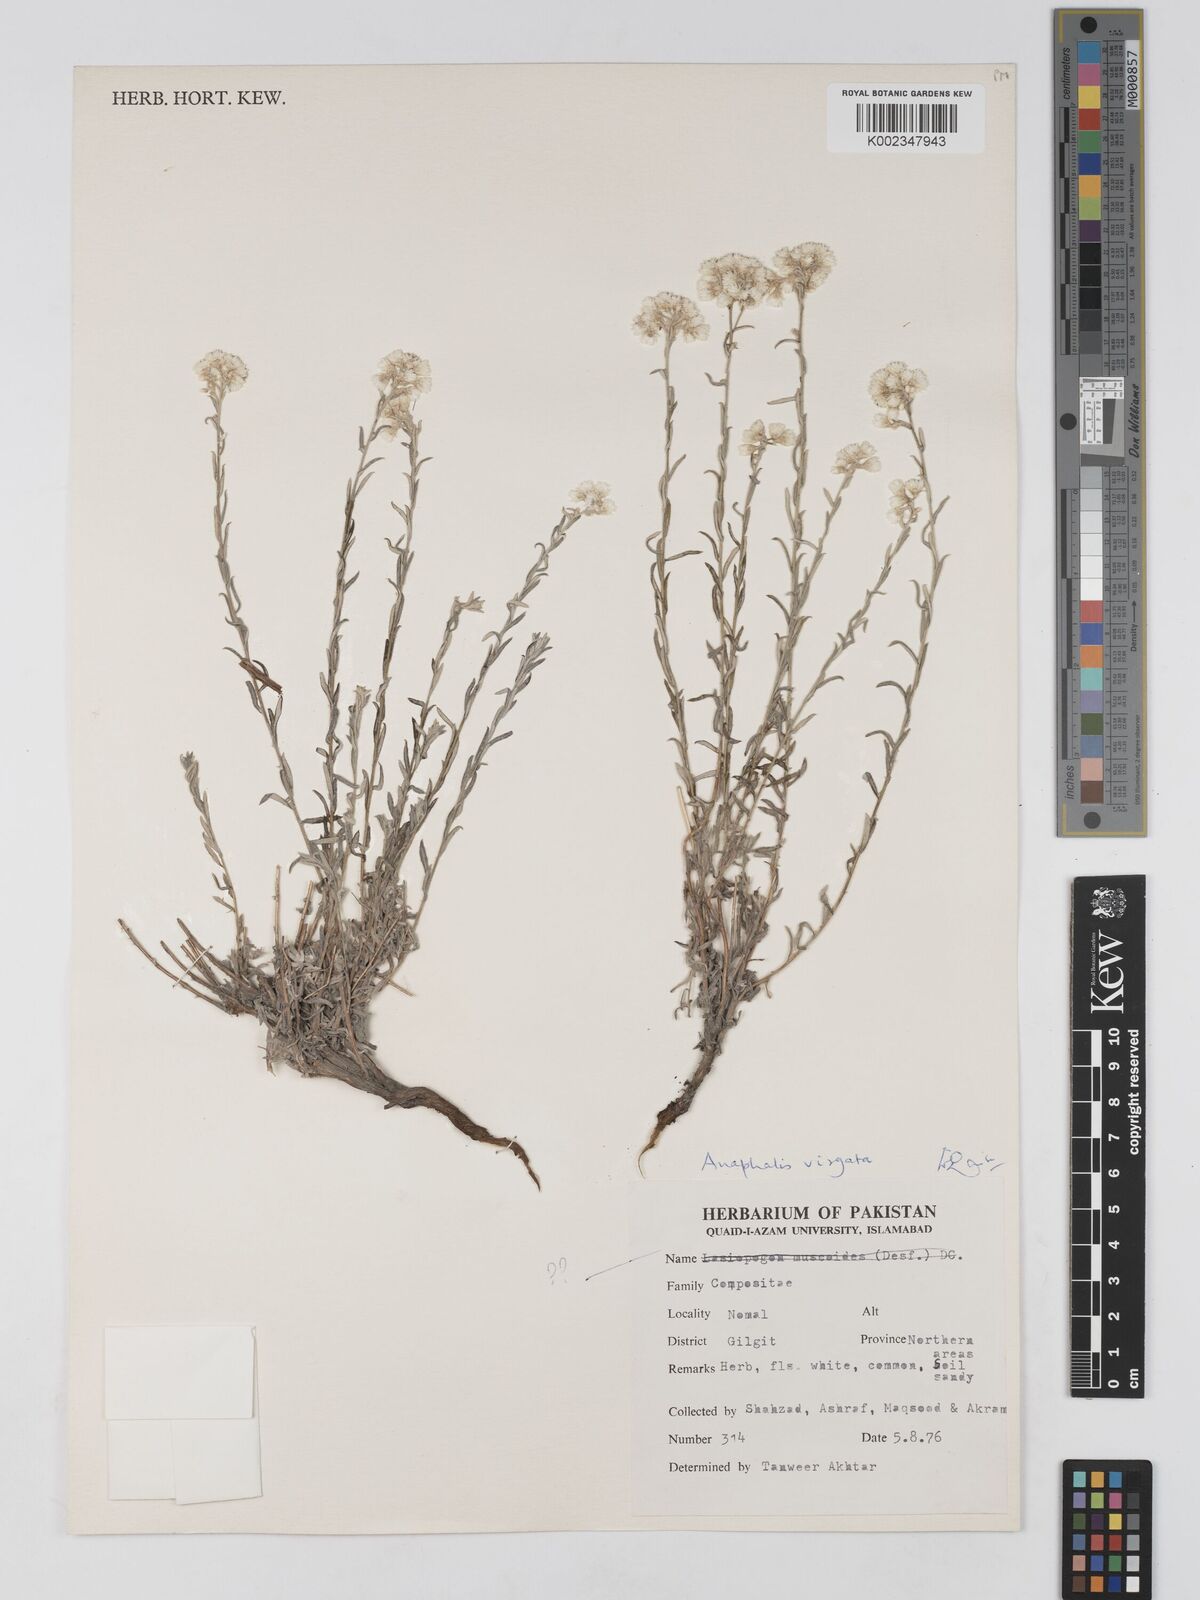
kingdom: Plantae
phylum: Tracheophyta
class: Magnoliopsida
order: Asterales
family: Asteraceae
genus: Anaphalis
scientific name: Anaphalis leptophylla
